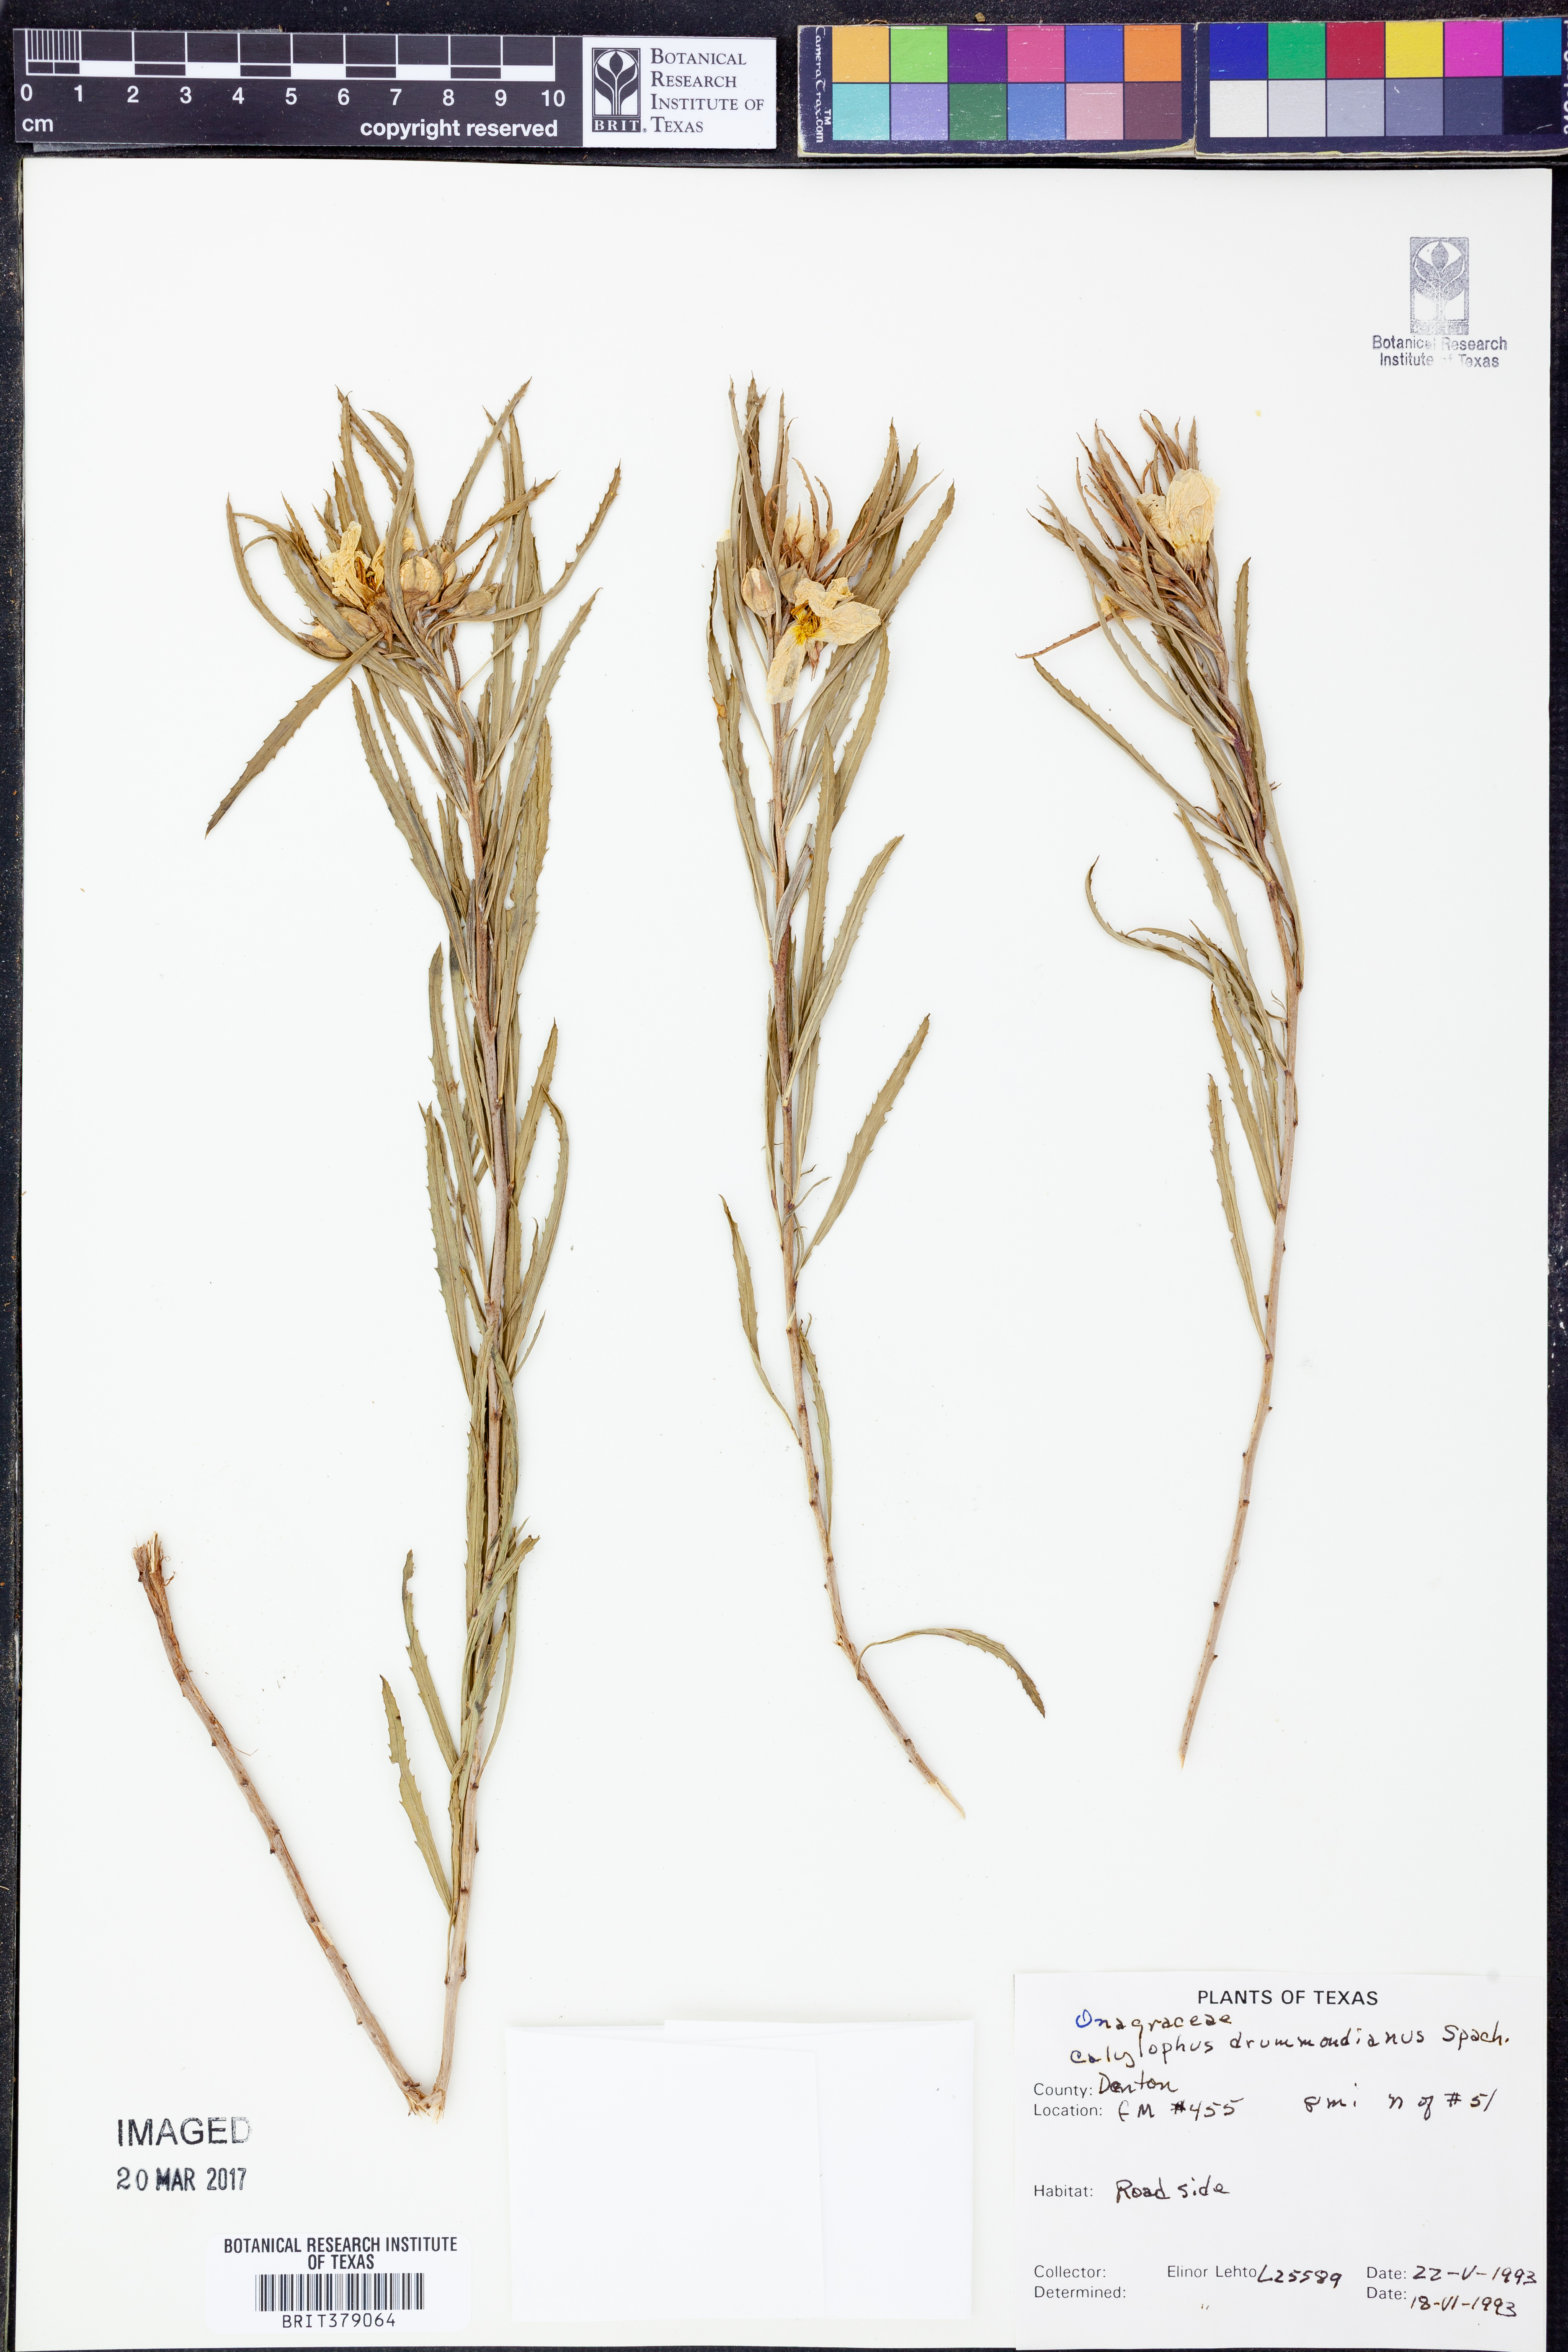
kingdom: Plantae
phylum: Tracheophyta
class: Magnoliopsida
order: Myrtales
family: Onagraceae
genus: Oenothera
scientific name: Oenothera serrulata
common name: Half-shrub calylophus
